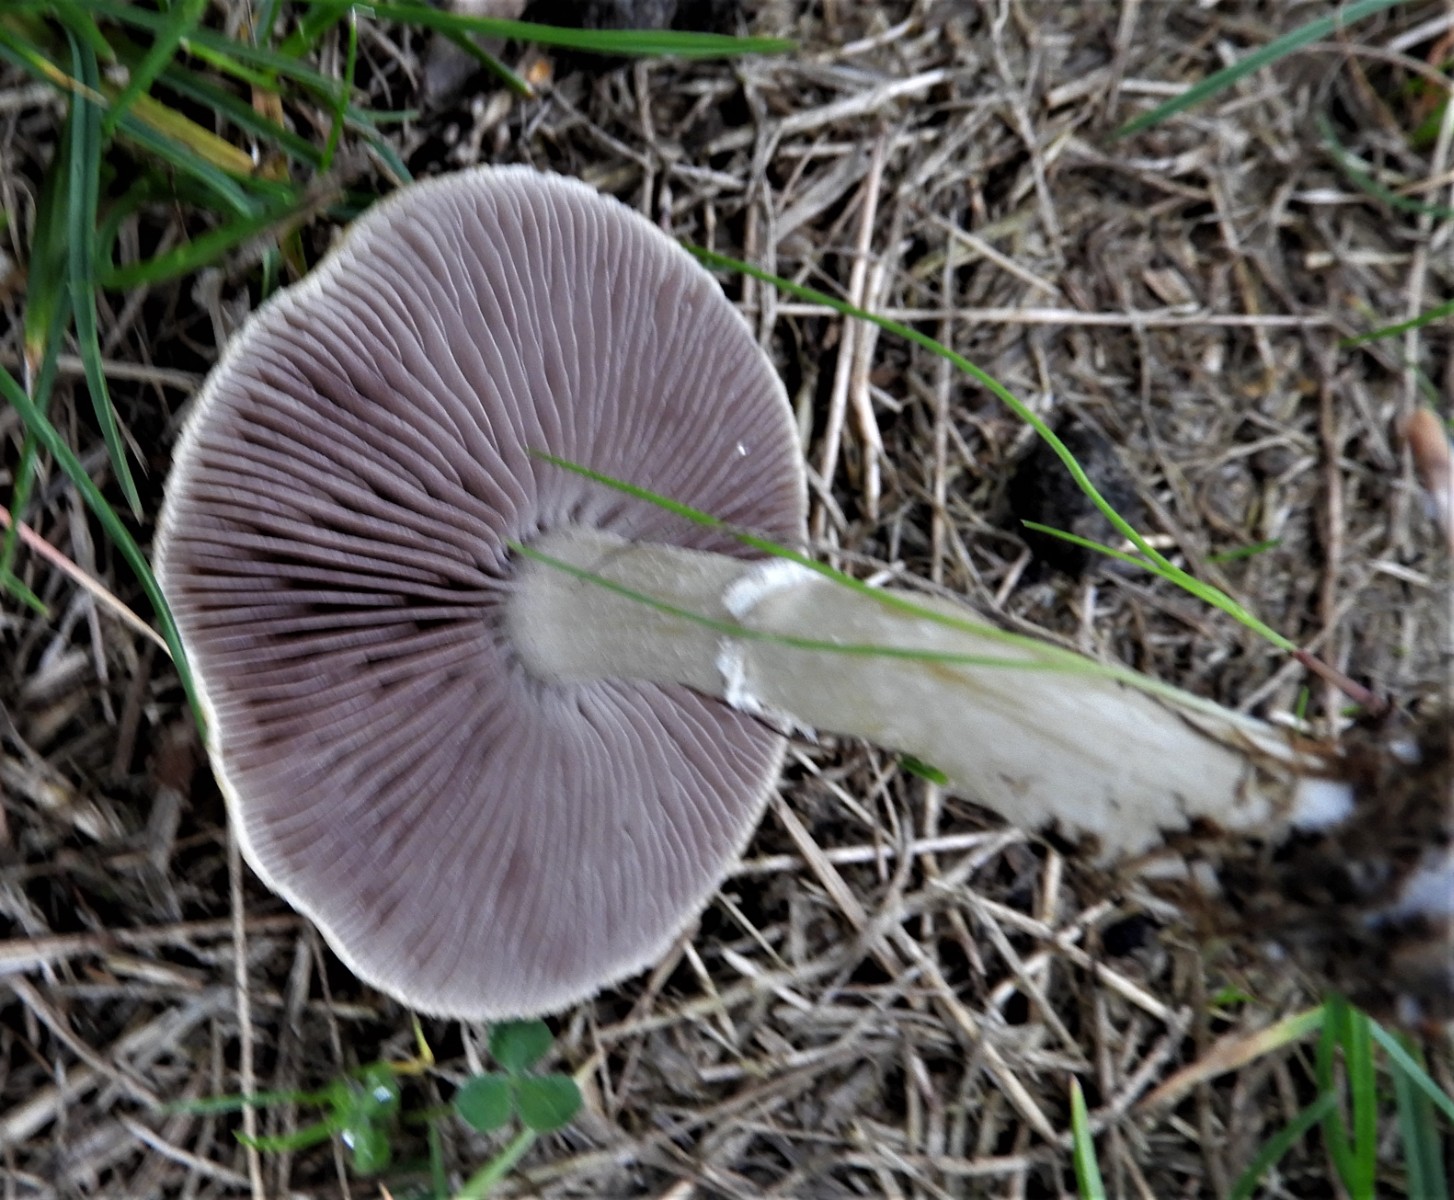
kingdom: Fungi
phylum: Basidiomycota
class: Agaricomycetes
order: Agaricales
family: Hymenogastraceae
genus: Psilocybe
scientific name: Psilocybe coronilla
